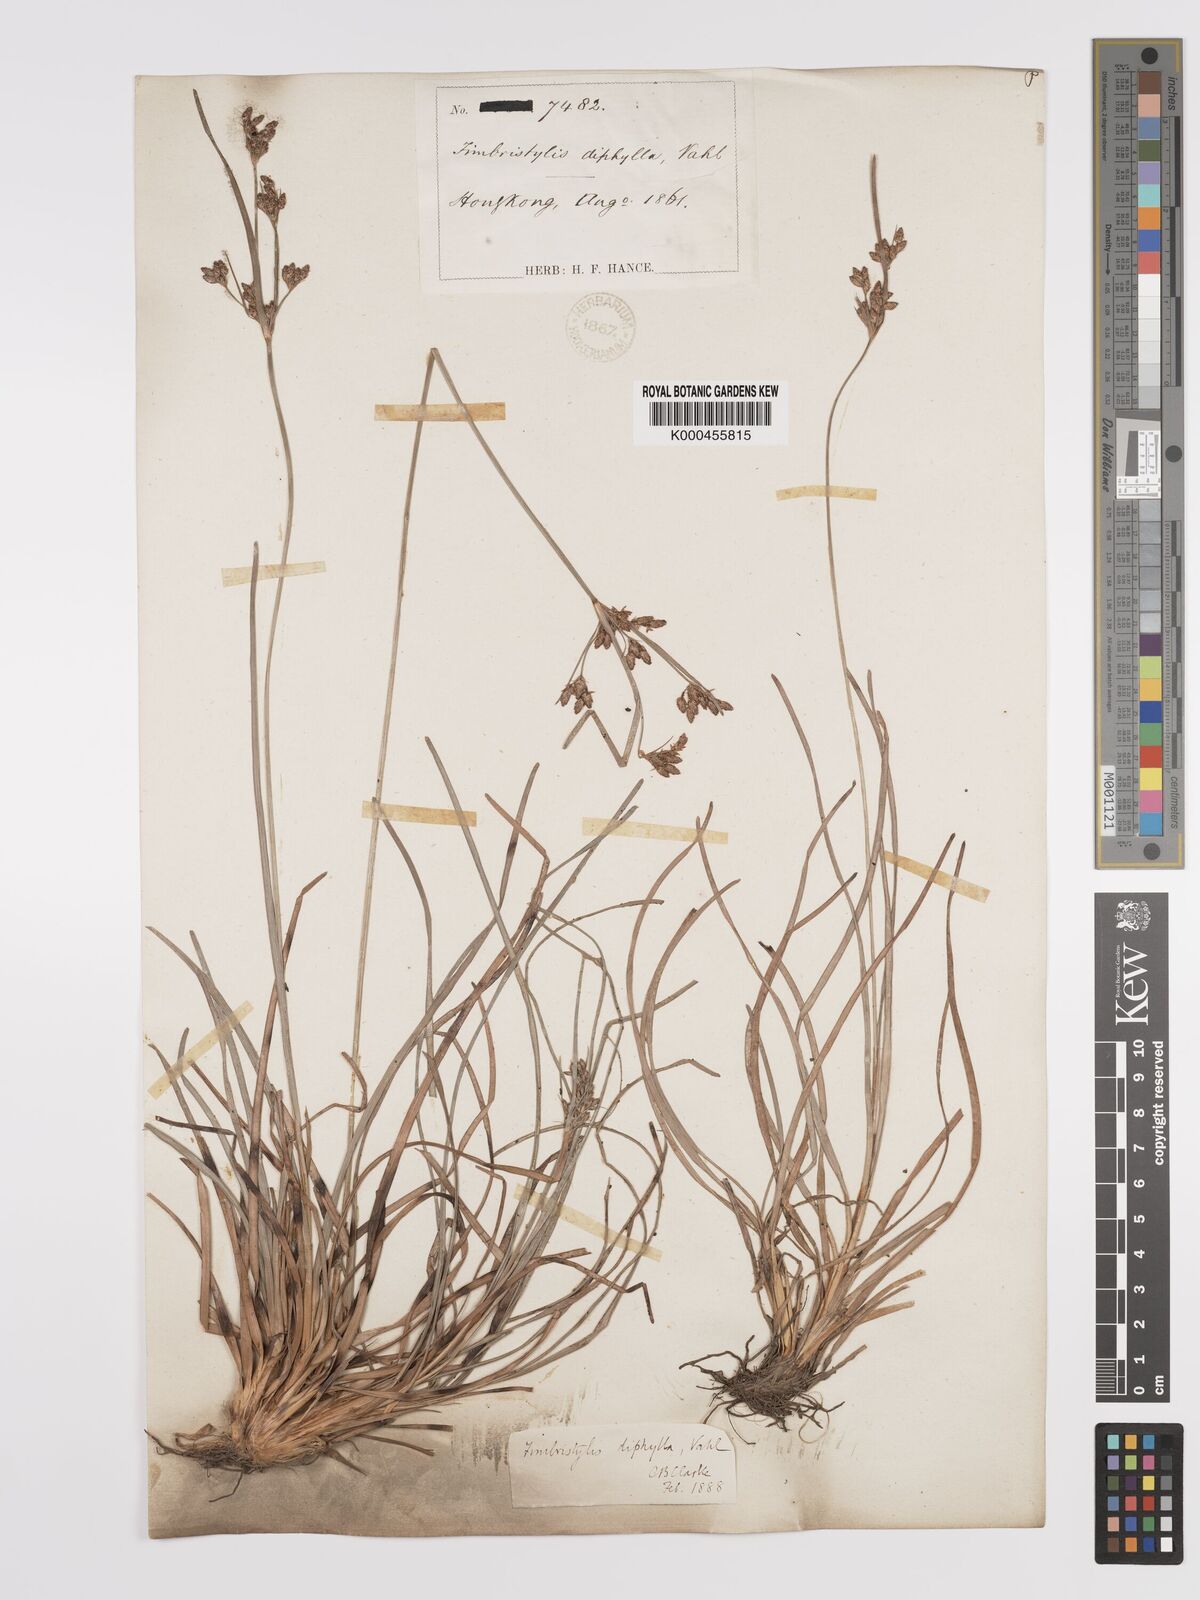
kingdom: Plantae
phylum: Tracheophyta
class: Liliopsida
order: Poales
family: Cyperaceae
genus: Fimbristylis
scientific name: Fimbristylis dichotoma
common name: Forked fimbry
